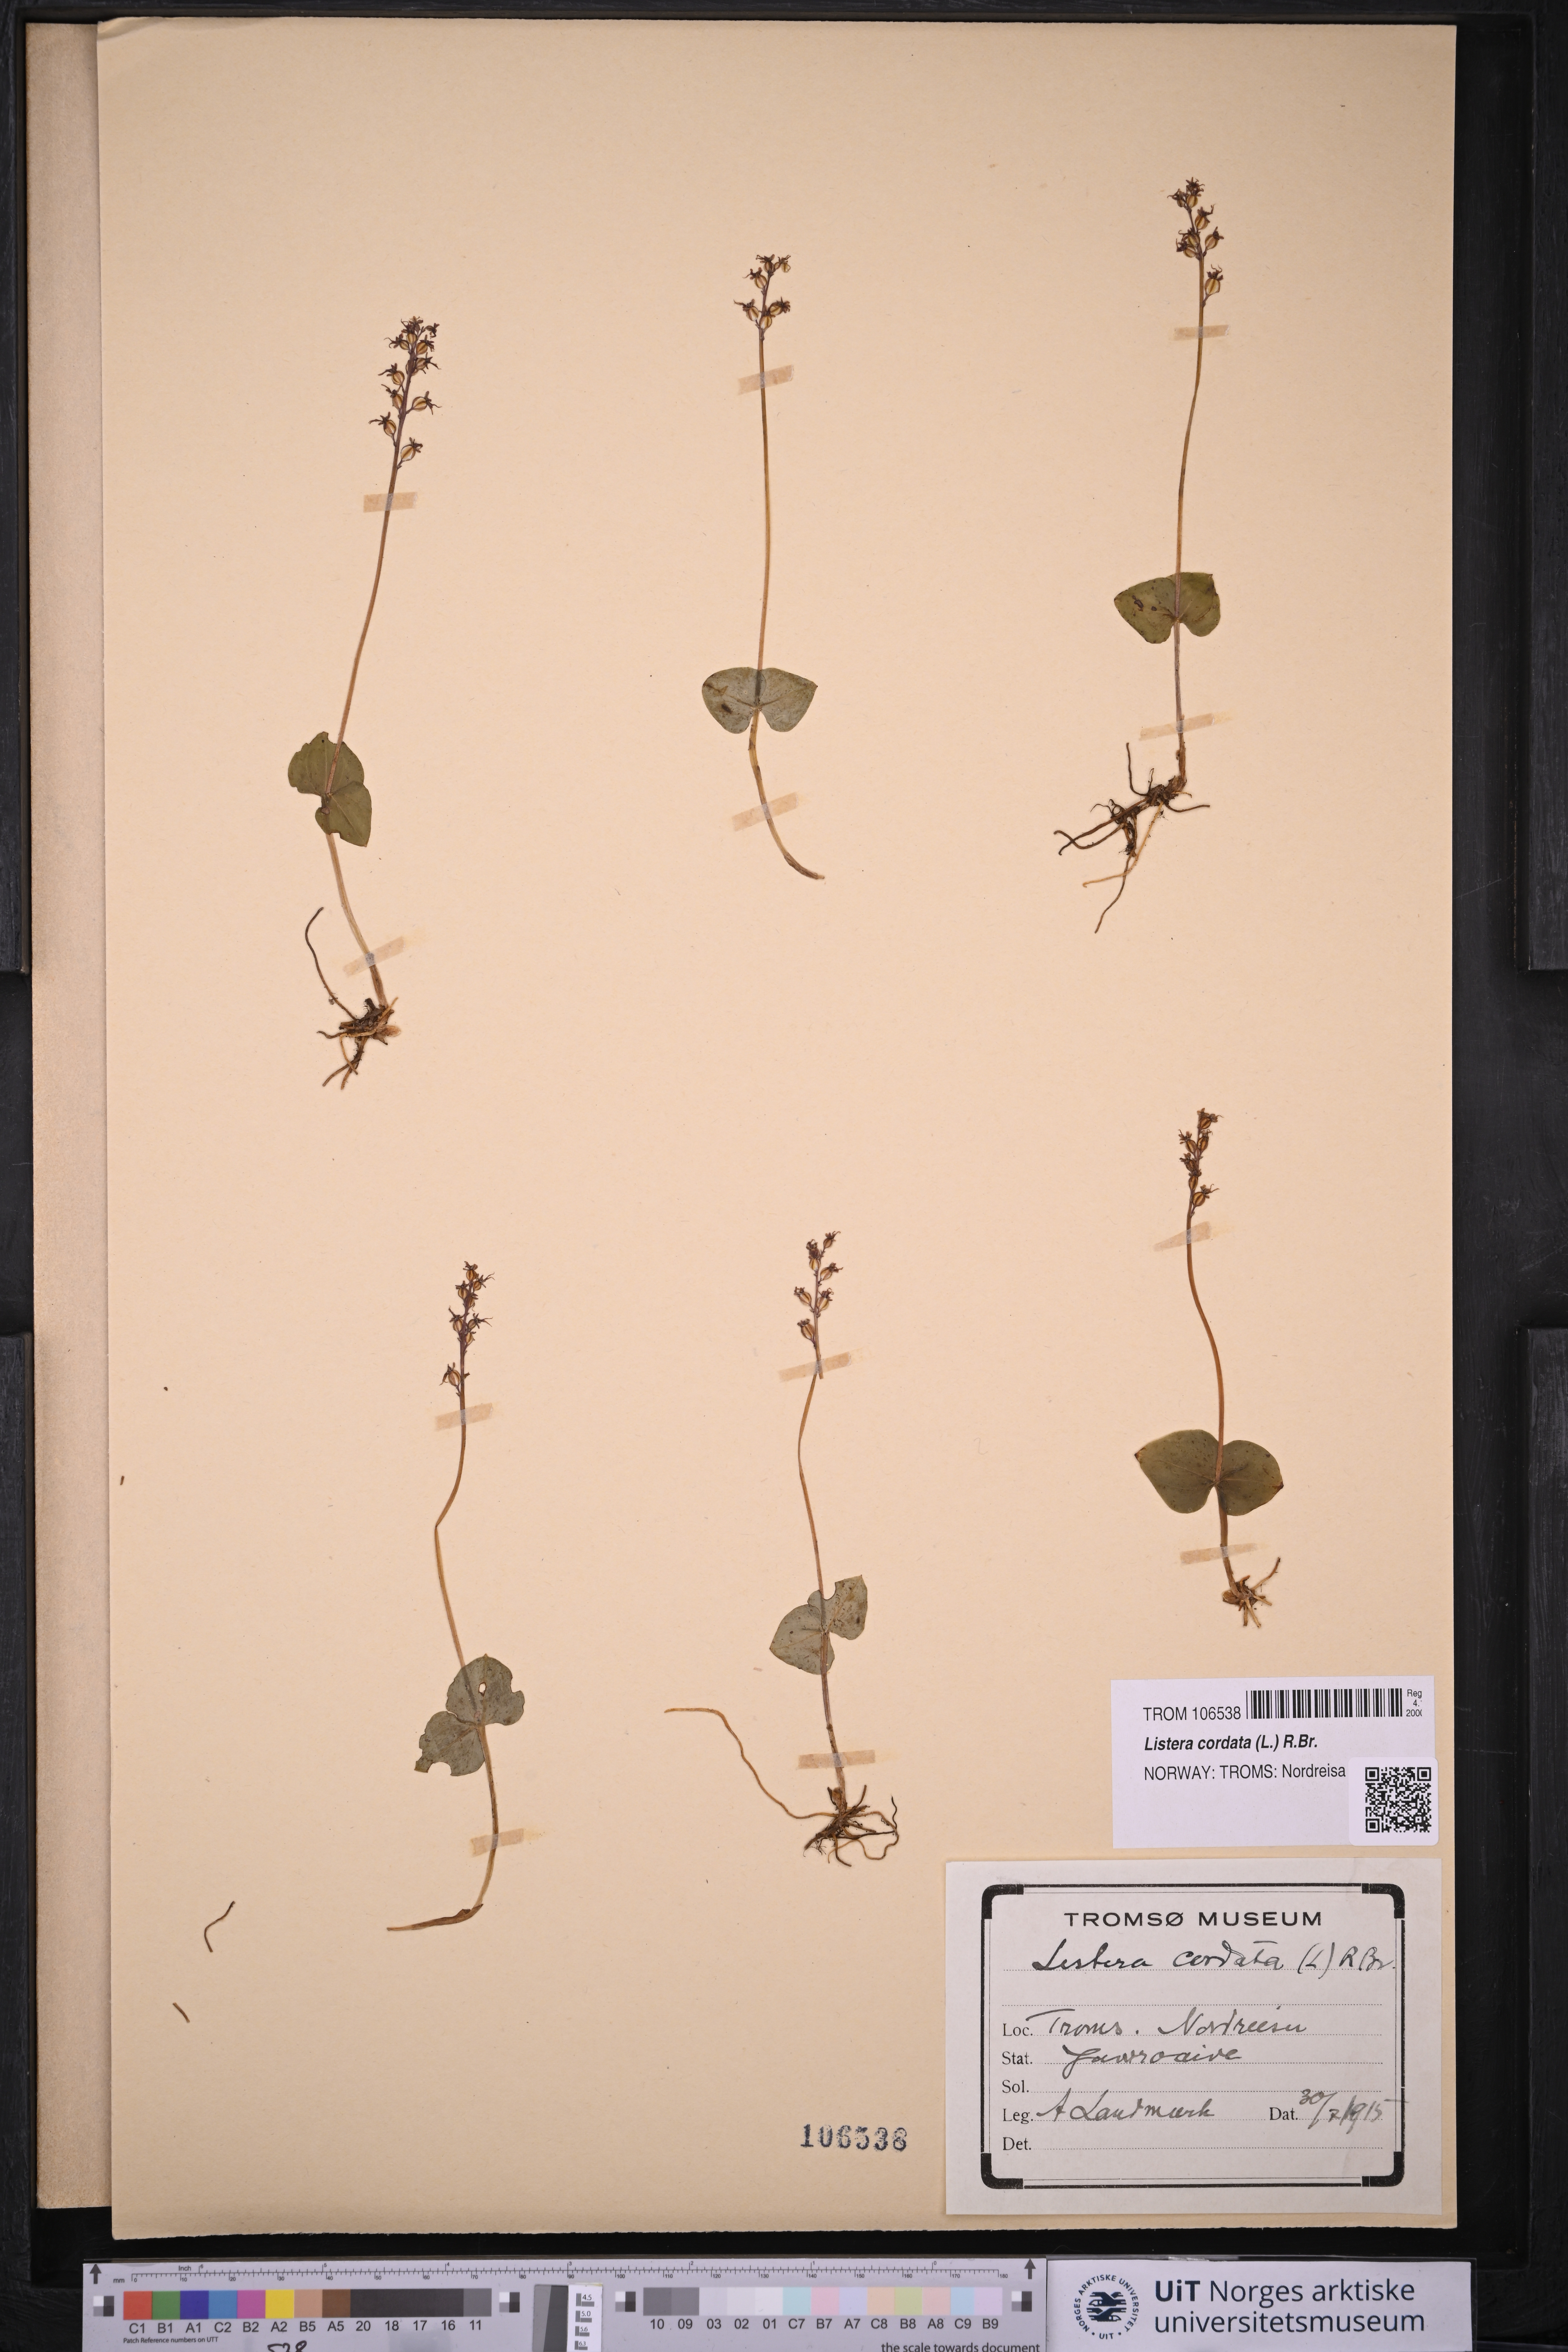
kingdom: Plantae
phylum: Tracheophyta
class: Liliopsida
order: Asparagales
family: Orchidaceae
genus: Neottia
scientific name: Neottia cordata
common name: Lesser twayblade
